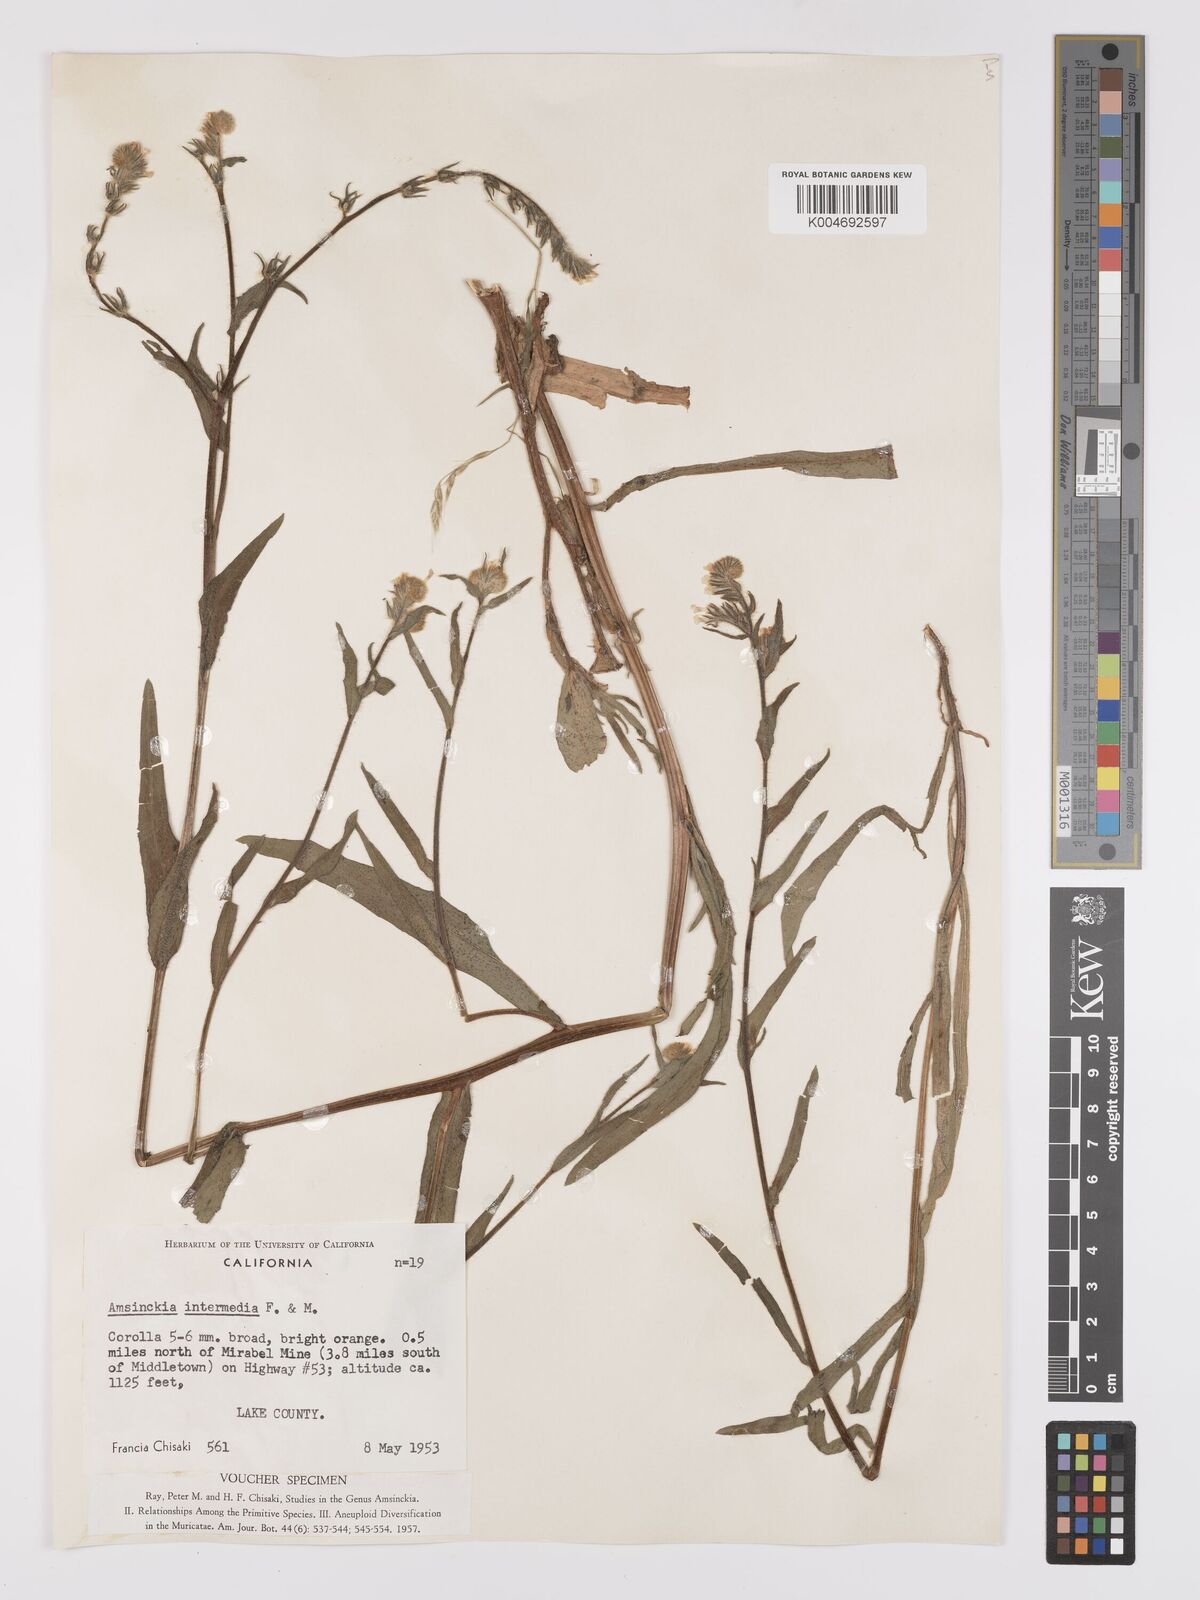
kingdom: Plantae
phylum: Tracheophyta
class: Magnoliopsida
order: Boraginales
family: Boraginaceae
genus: Amsinckia
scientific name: Amsinckia menziesii
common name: Menzies' fiddleneck
